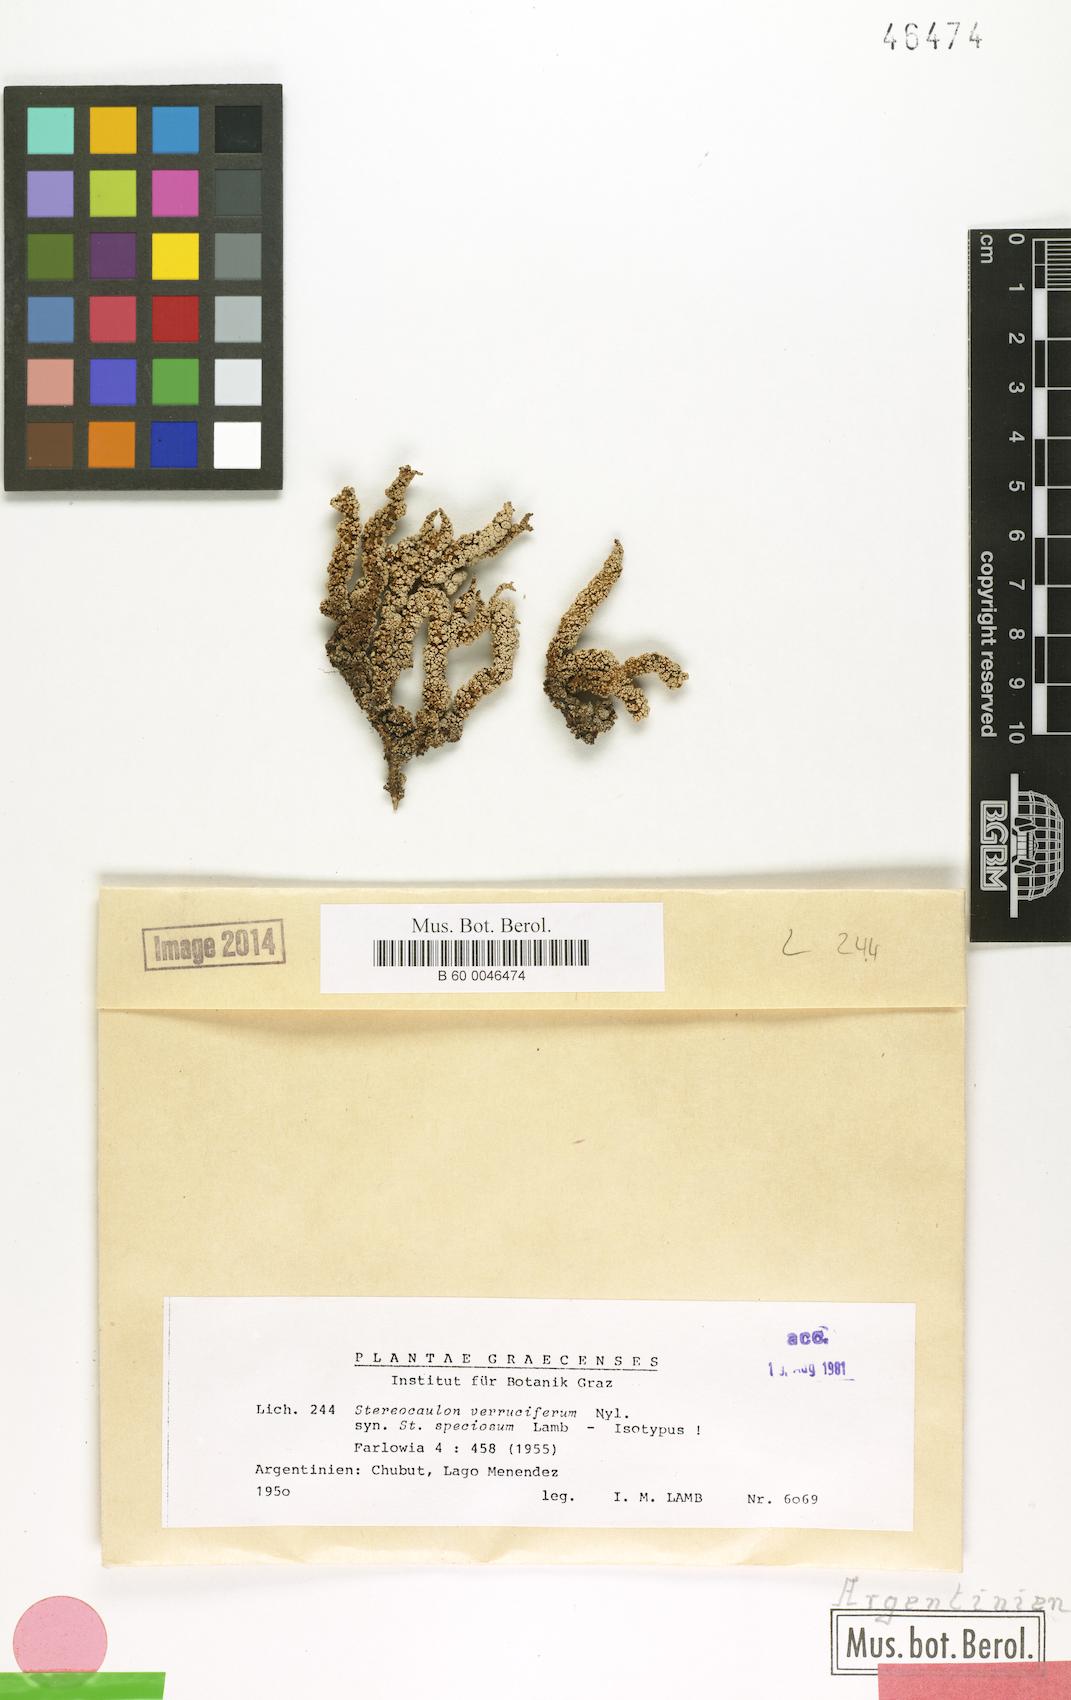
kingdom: Fungi
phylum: Ascomycota
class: Lecanoromycetes
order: Lecanorales
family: Stereocaulaceae
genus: Stereocaulon
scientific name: Stereocaulon
